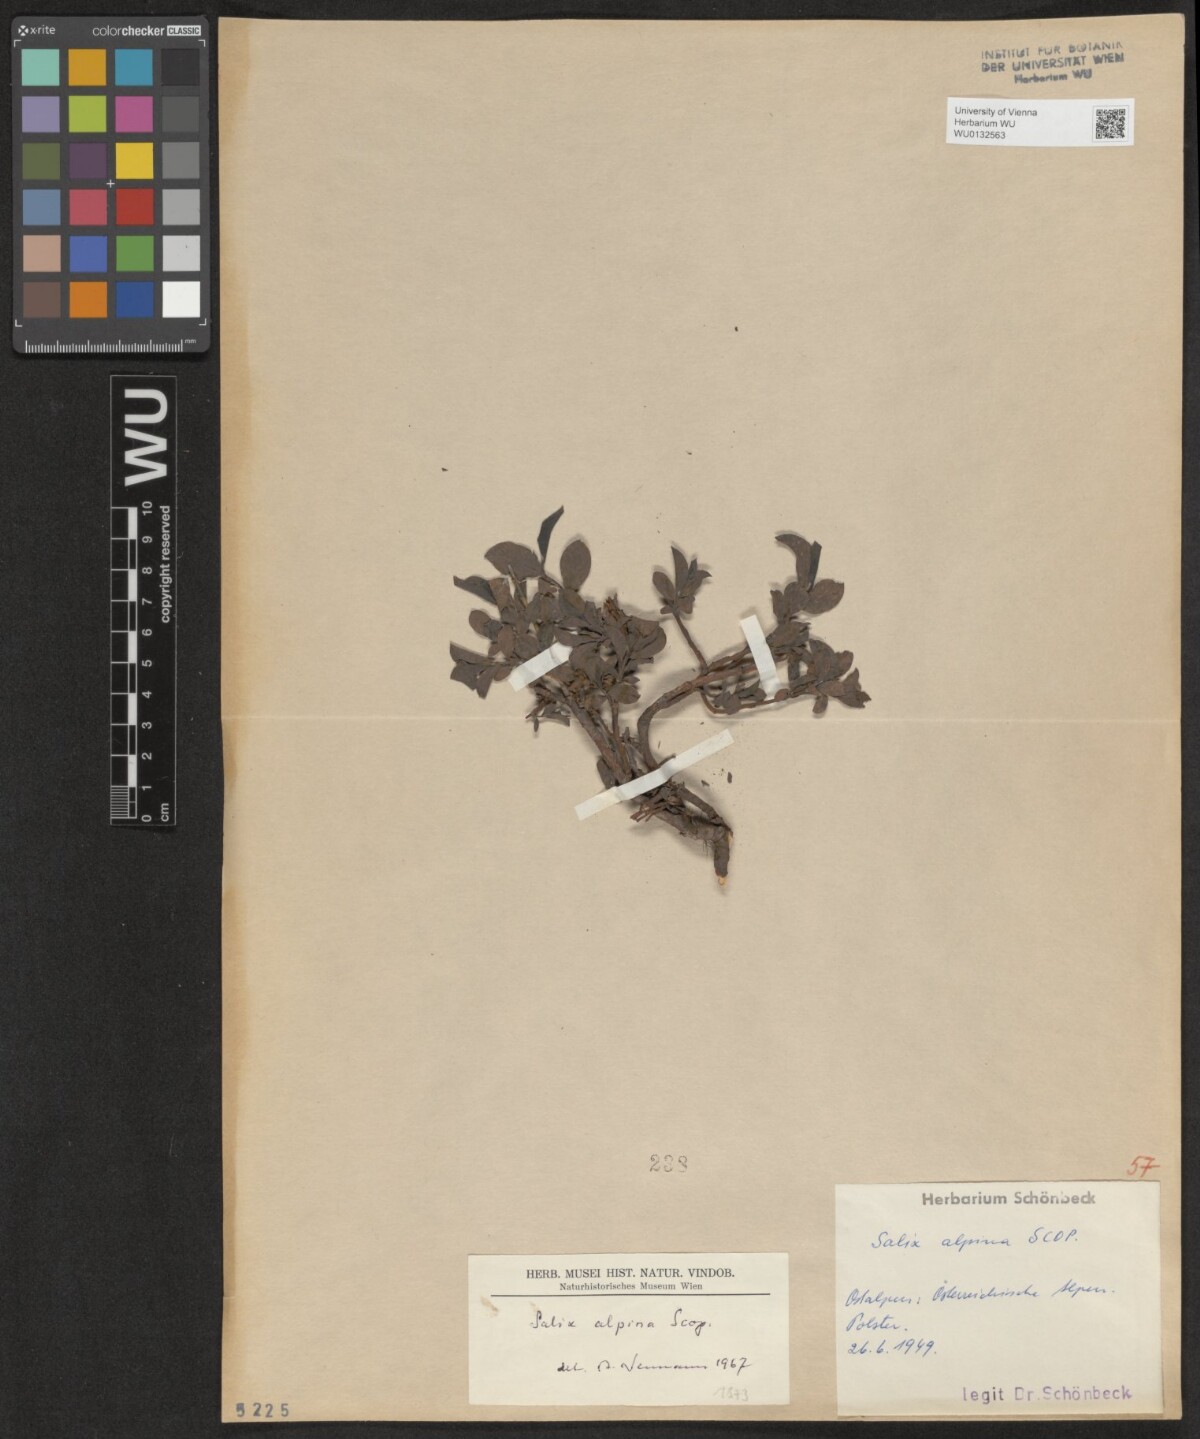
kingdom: Plantae
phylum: Tracheophyta
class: Magnoliopsida
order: Malpighiales
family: Salicaceae
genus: Salix
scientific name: Salix alpina
